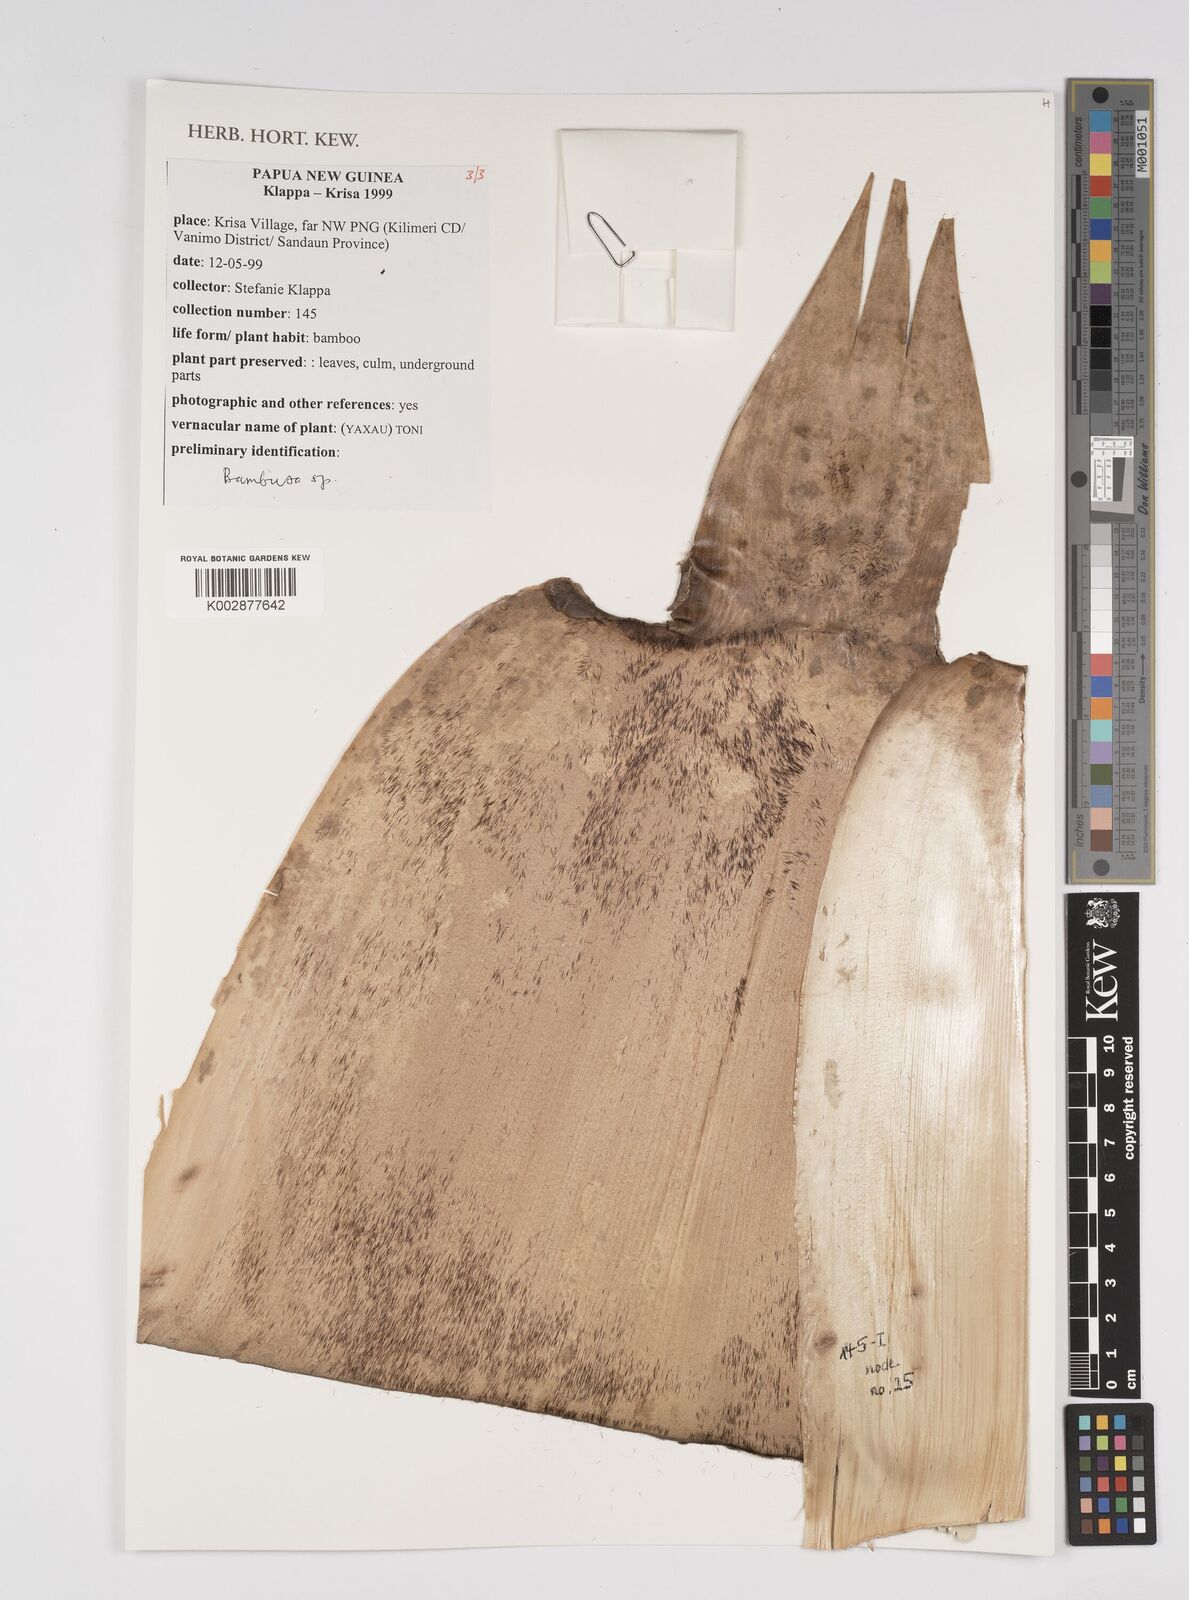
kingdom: Plantae
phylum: Tracheophyta
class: Liliopsida
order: Poales
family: Poaceae
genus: Bambusa
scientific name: Bambusa
